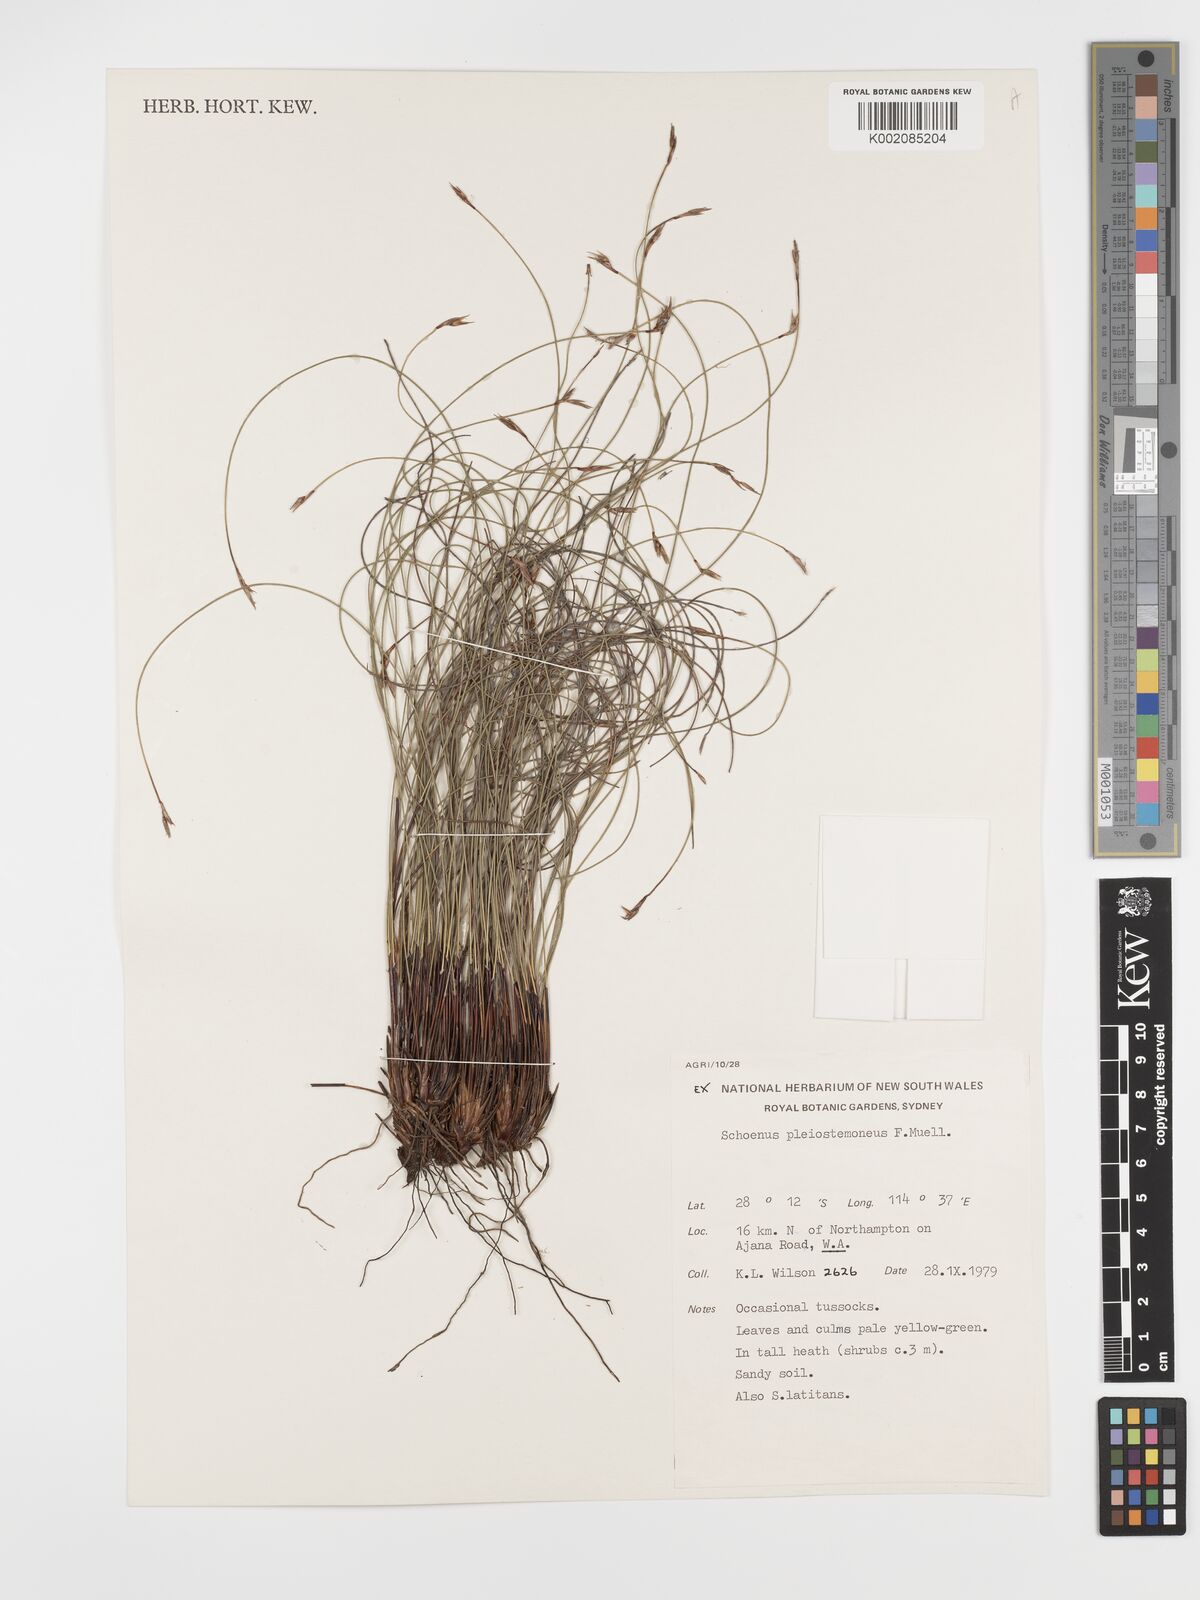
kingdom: Plantae
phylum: Tracheophyta
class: Liliopsida
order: Poales
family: Cyperaceae
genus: Schoenus
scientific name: Schoenus pleiostemoneus
